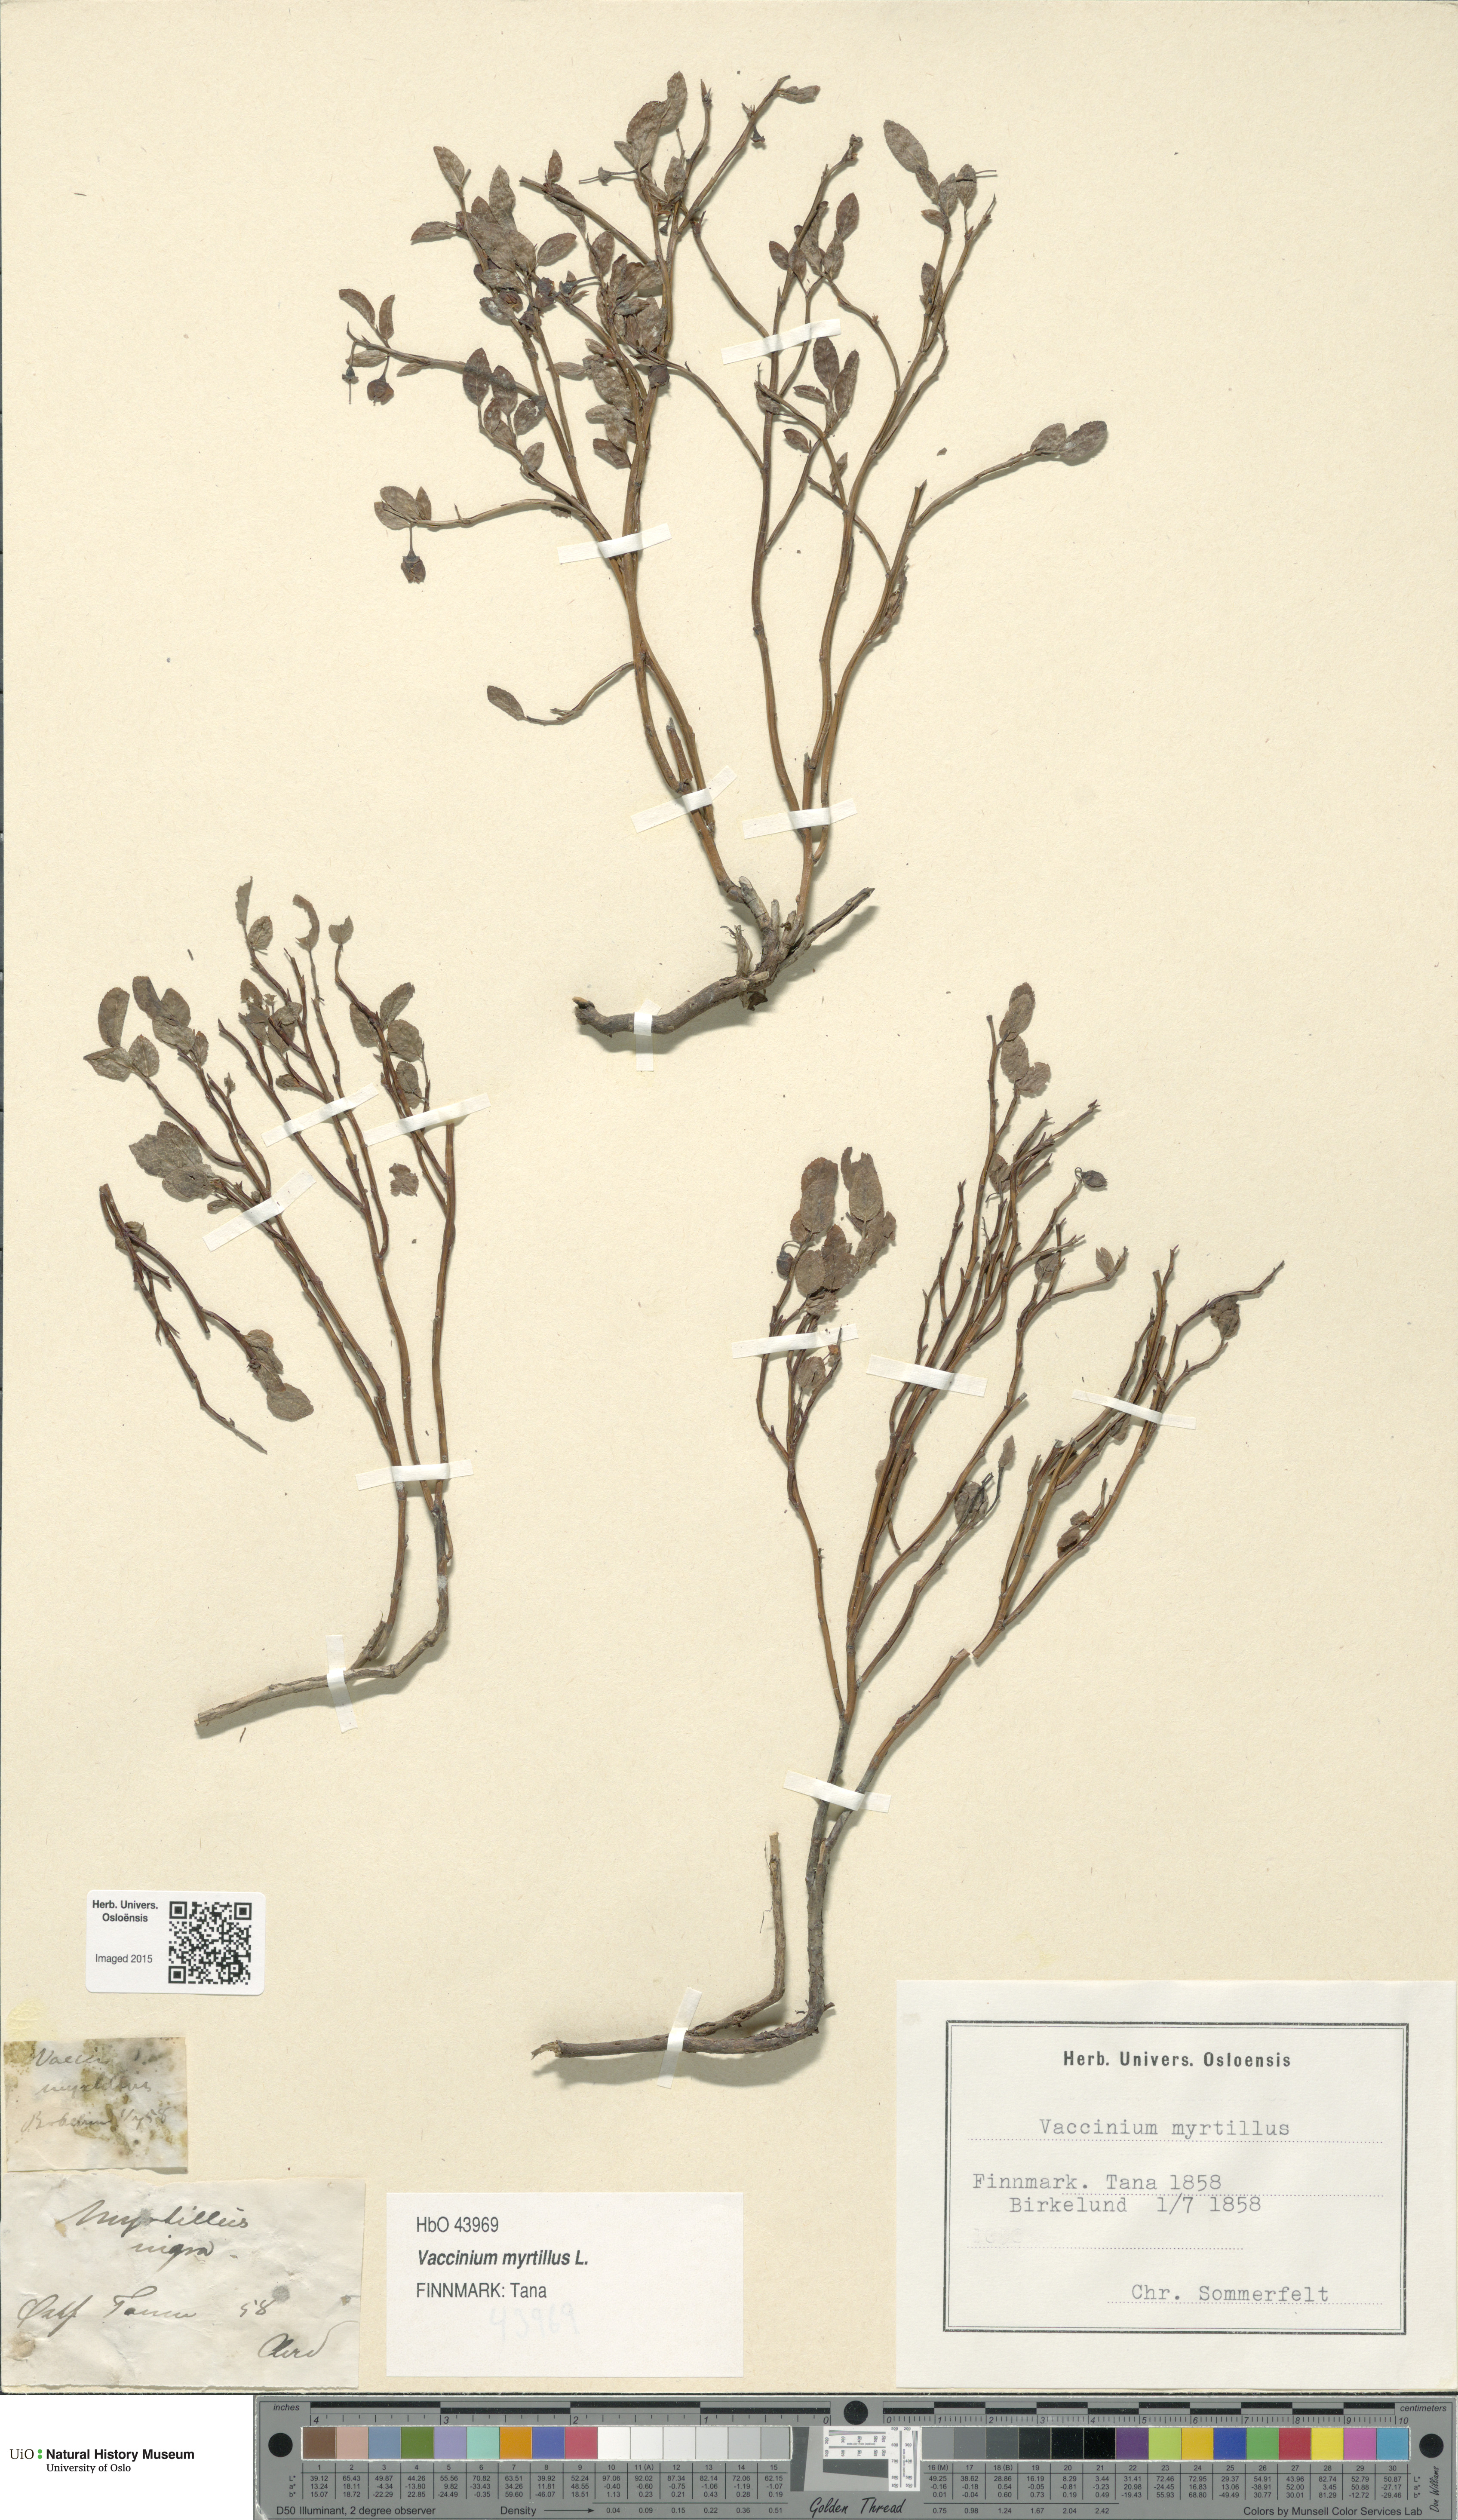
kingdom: Plantae
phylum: Tracheophyta
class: Magnoliopsida
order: Ericales
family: Ericaceae
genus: Vaccinium
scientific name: Vaccinium myrtillus
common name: Bilberry
